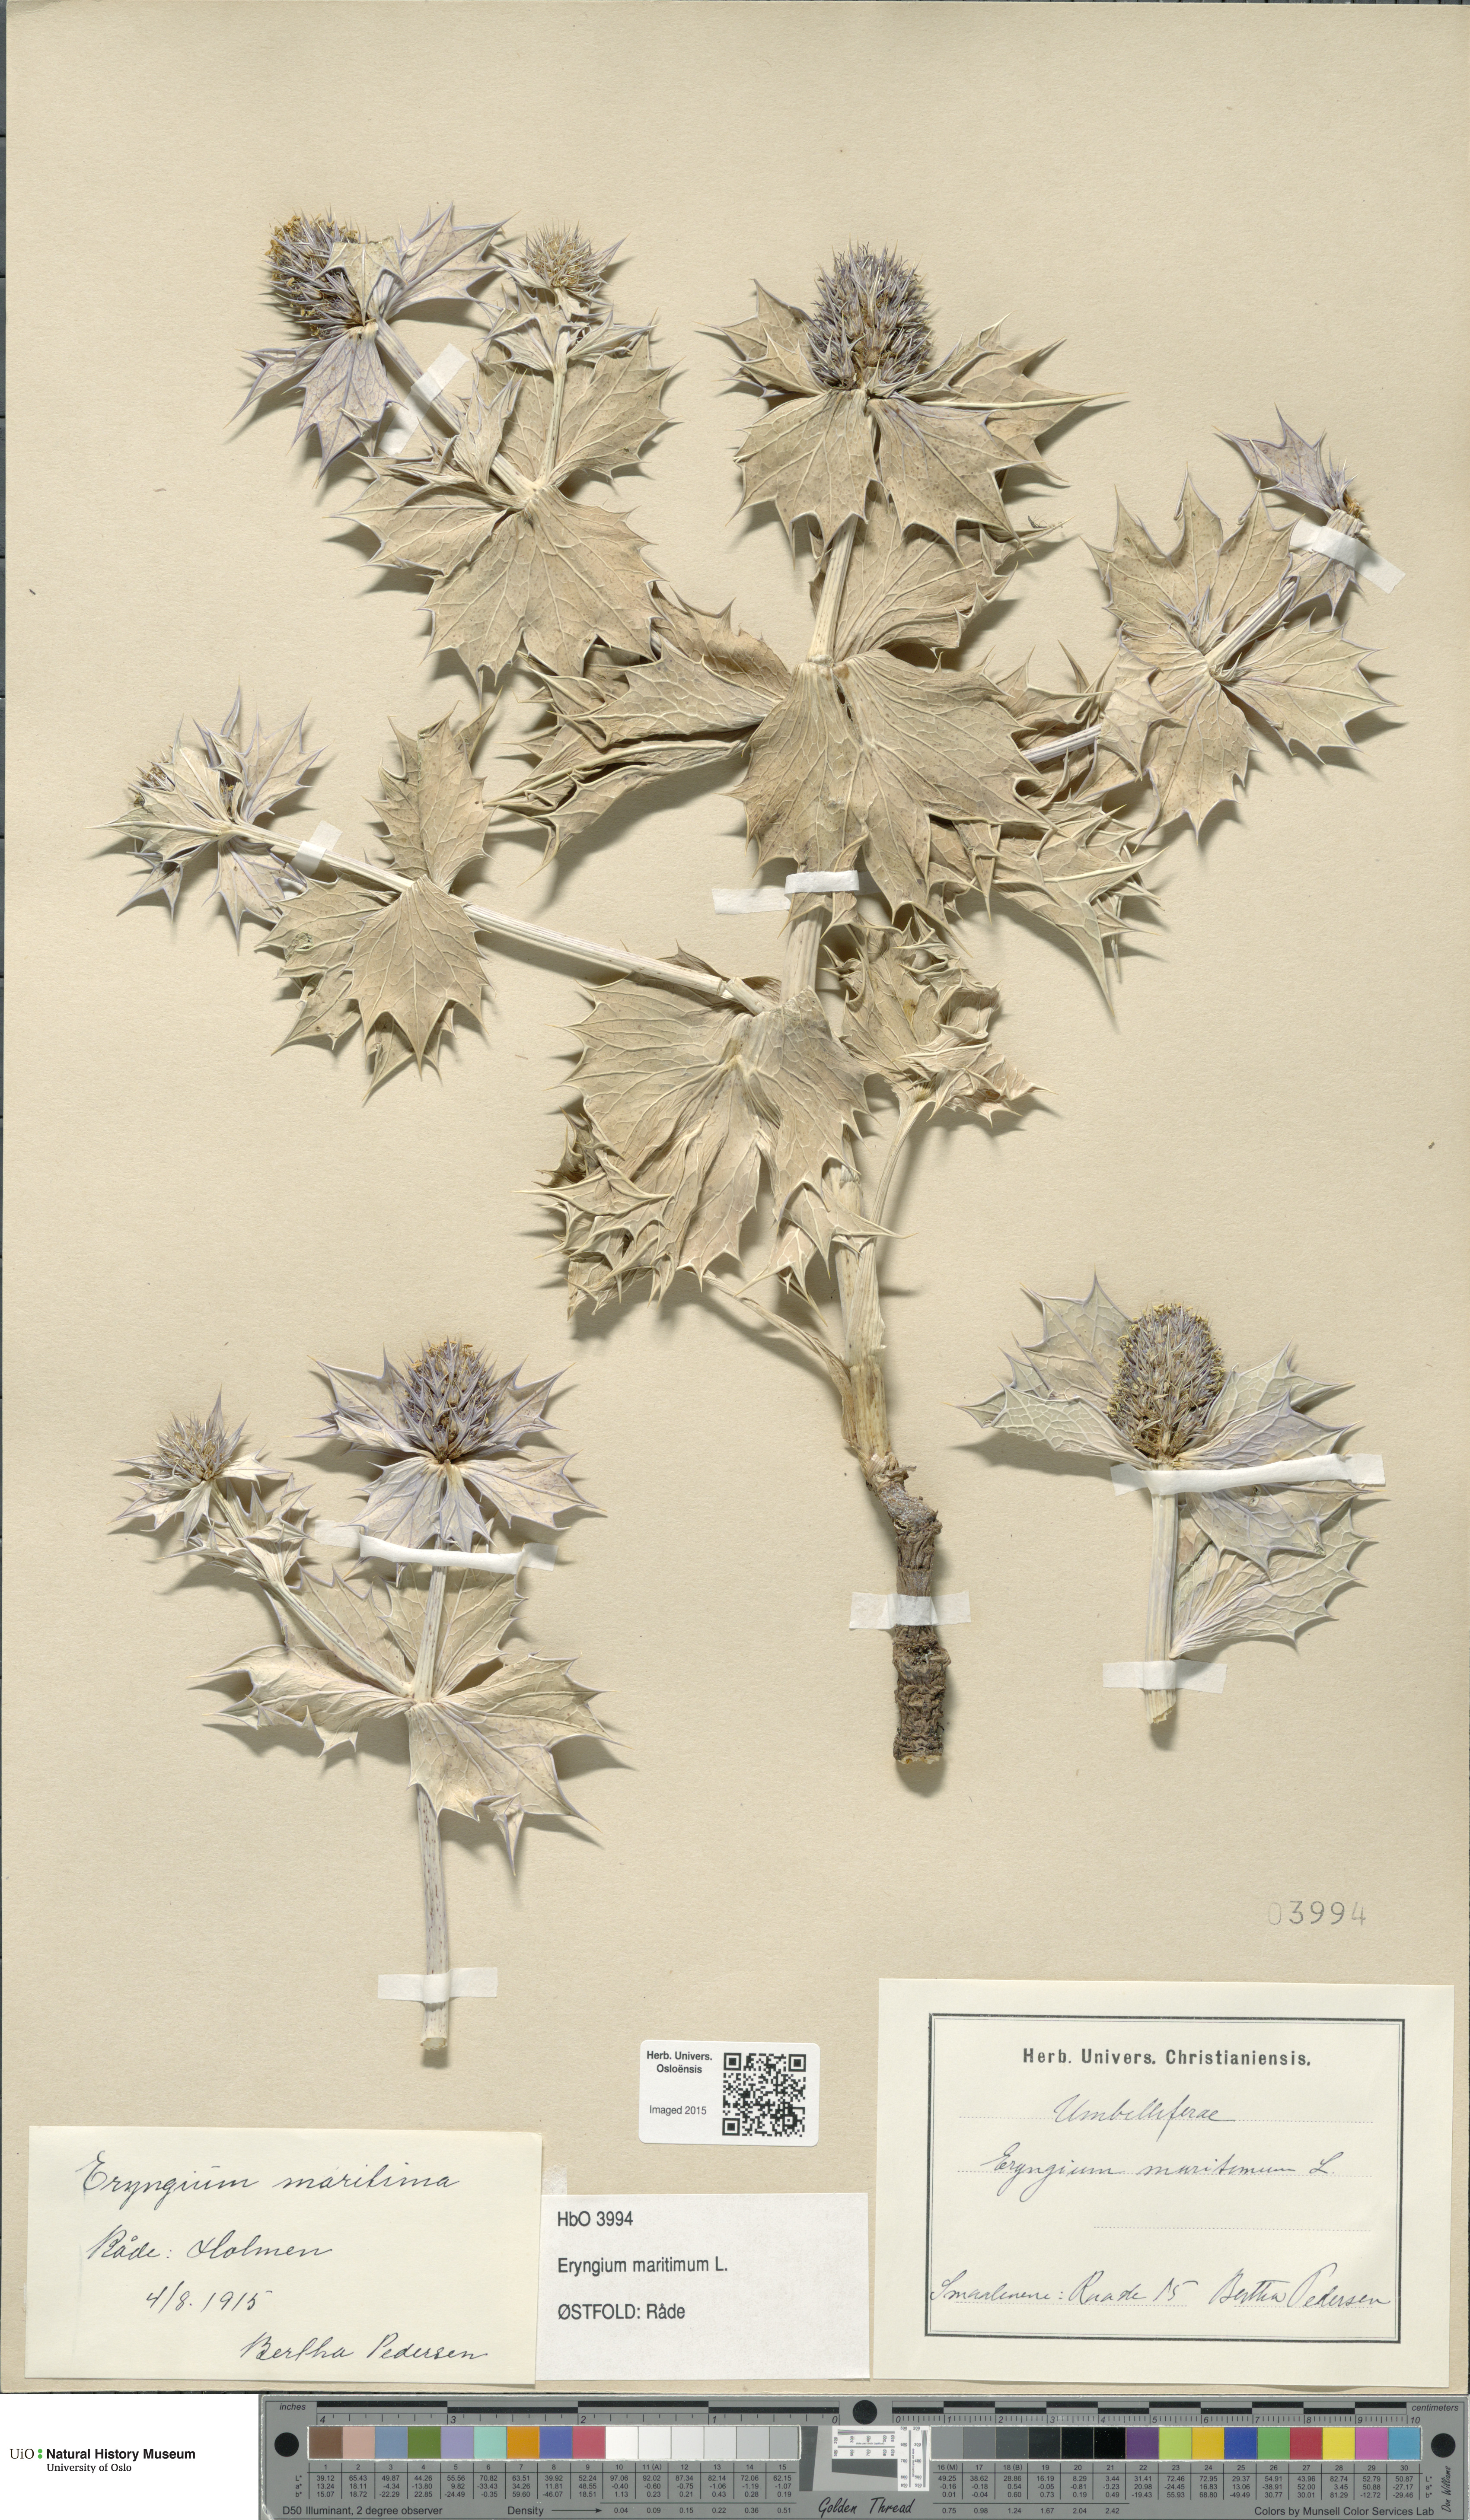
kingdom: Plantae
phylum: Tracheophyta
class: Magnoliopsida
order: Apiales
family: Apiaceae
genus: Eryngium
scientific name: Eryngium maritimum
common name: Sea-holly
